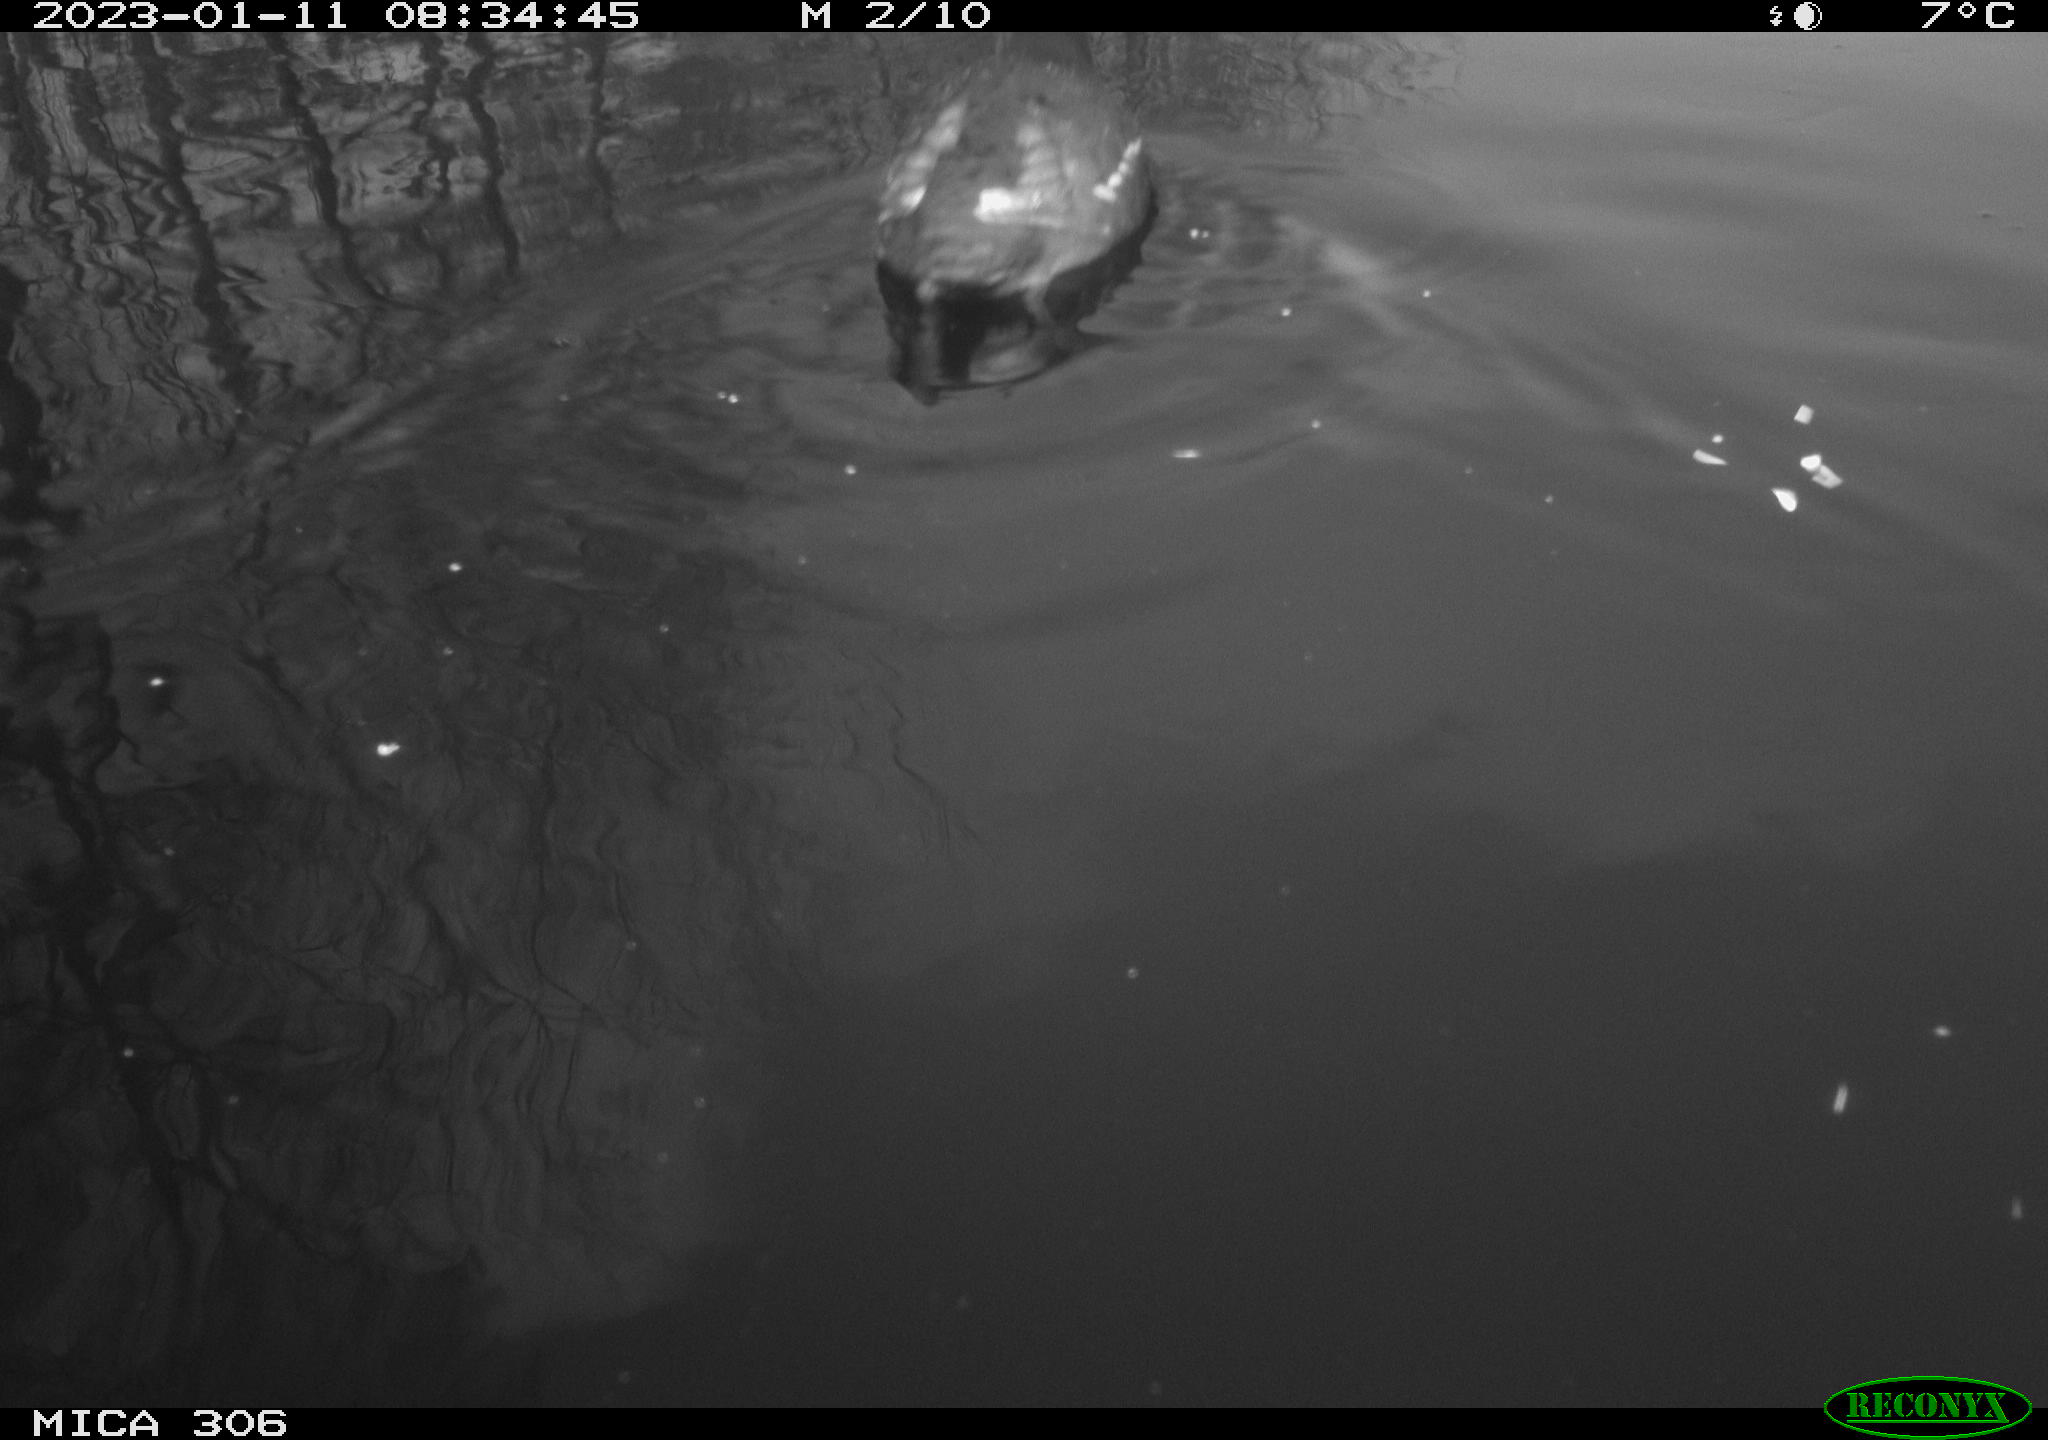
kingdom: Animalia
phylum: Chordata
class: Aves
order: Gruiformes
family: Rallidae
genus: Gallinula
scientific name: Gallinula chloropus
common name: Common moorhen
